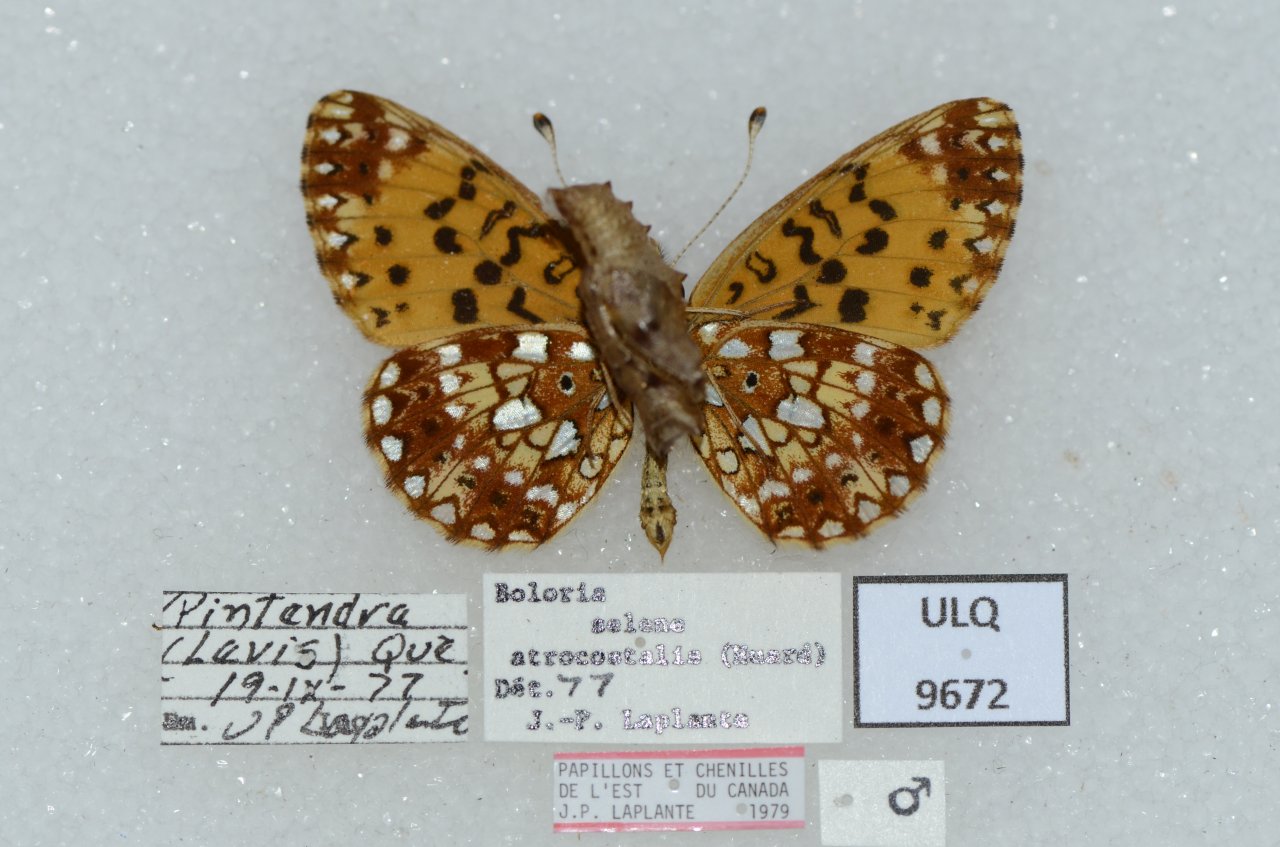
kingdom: Animalia
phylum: Arthropoda
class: Insecta
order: Lepidoptera
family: Nymphalidae
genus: Boloria
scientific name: Boloria selene
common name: Silver-bordered Fritillary
